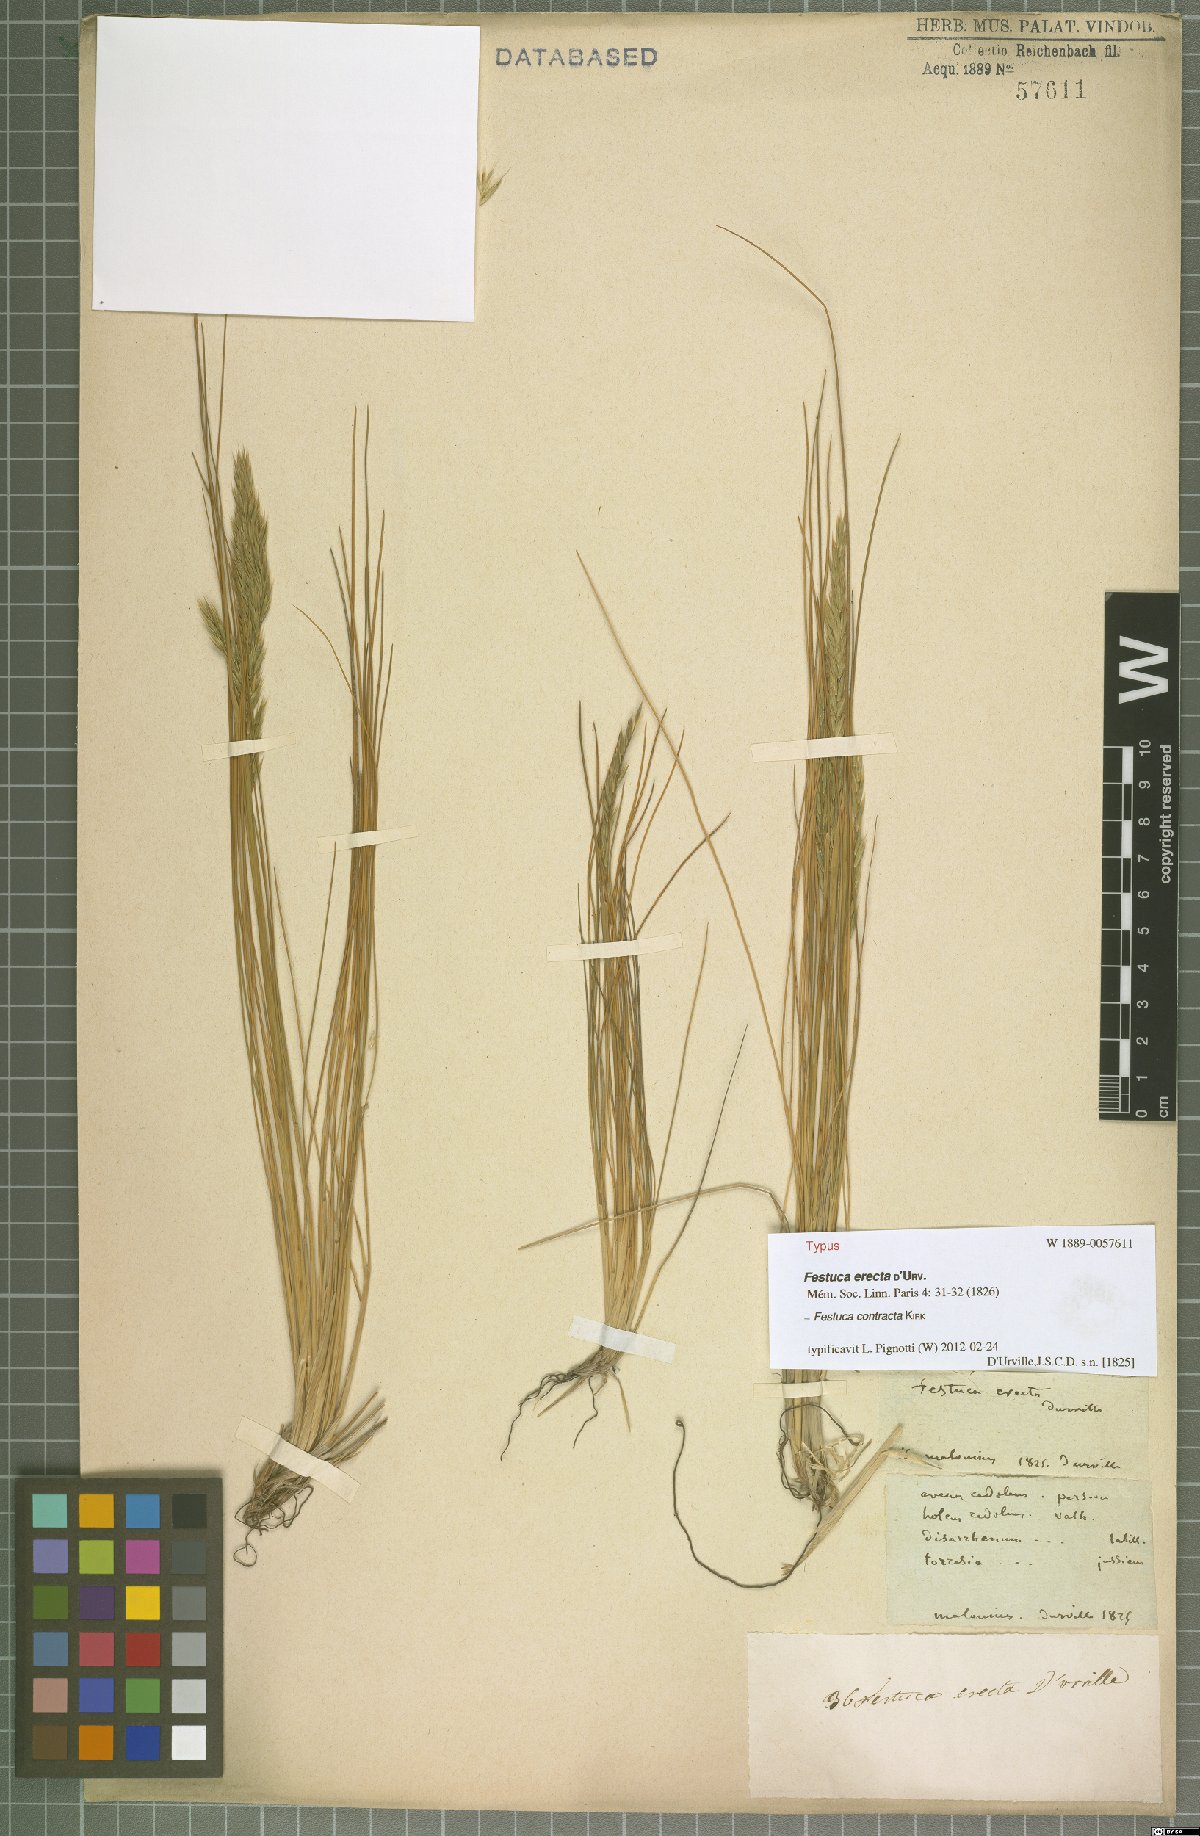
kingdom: Plantae
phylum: Tracheophyta
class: Liliopsida
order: Poales
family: Poaceae
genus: Festuca
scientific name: Festuca contracta
